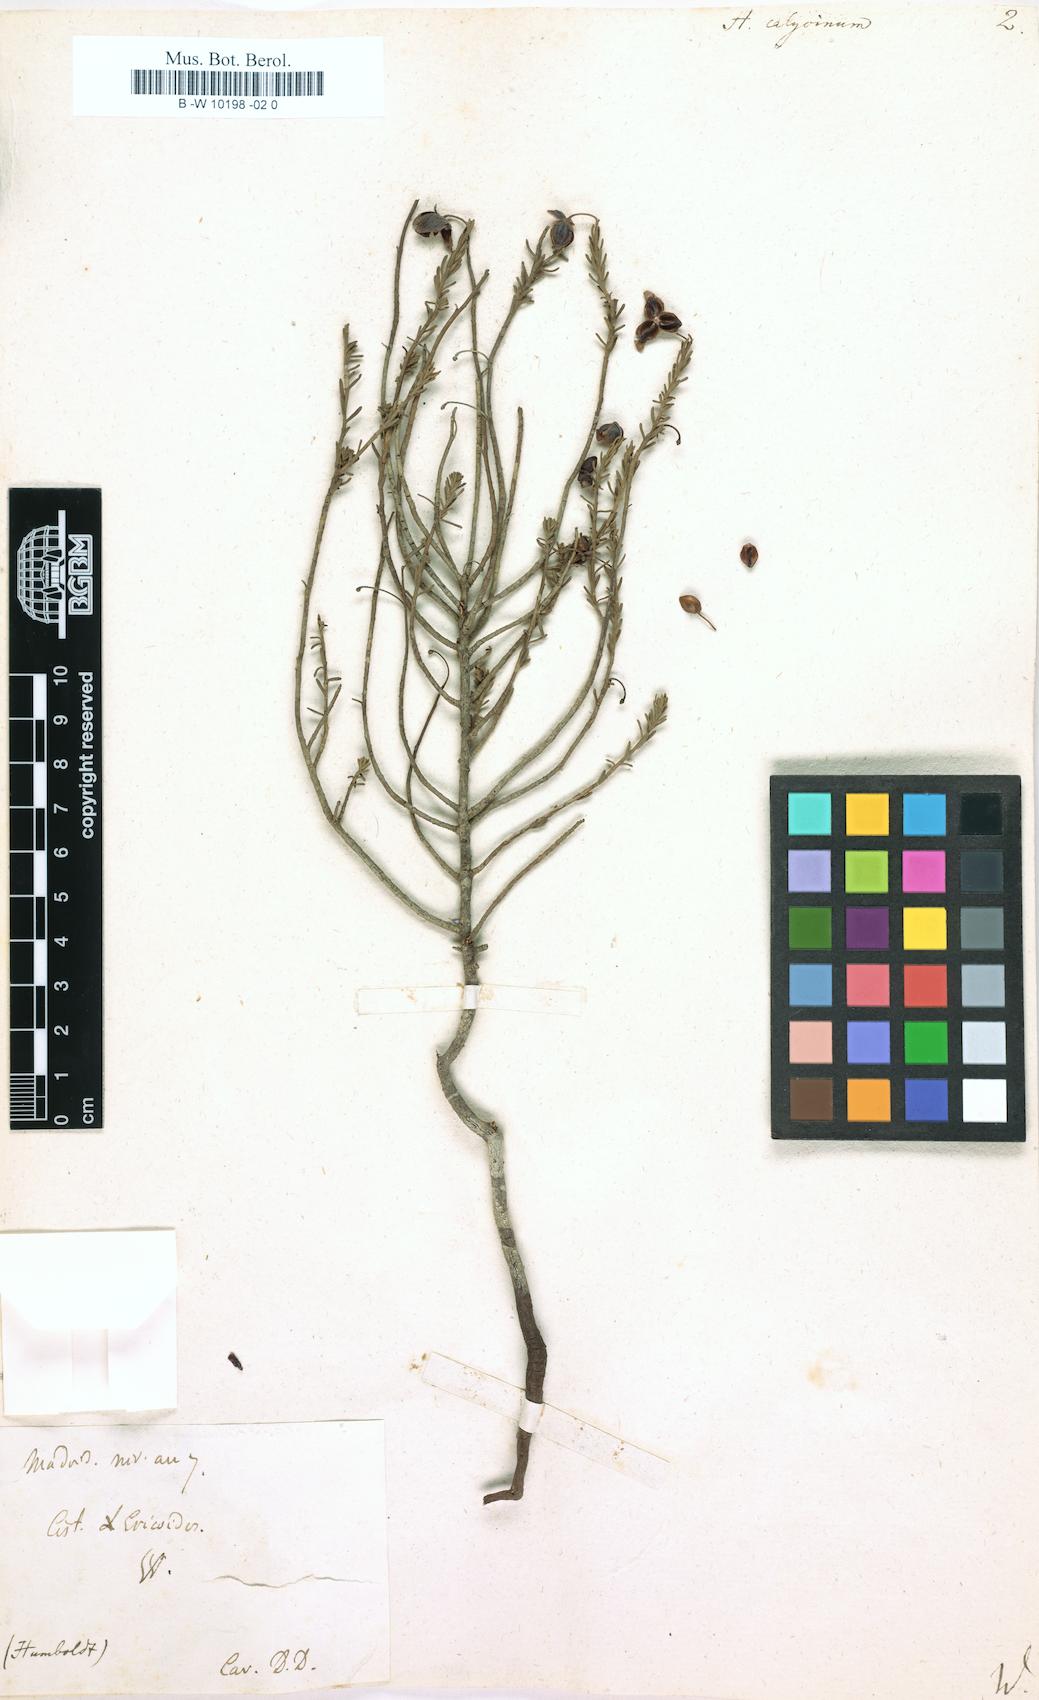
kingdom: Plantae
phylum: Tracheophyta
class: Magnoliopsida
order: Malvales
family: Cistaceae
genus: Fumana
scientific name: Fumana
